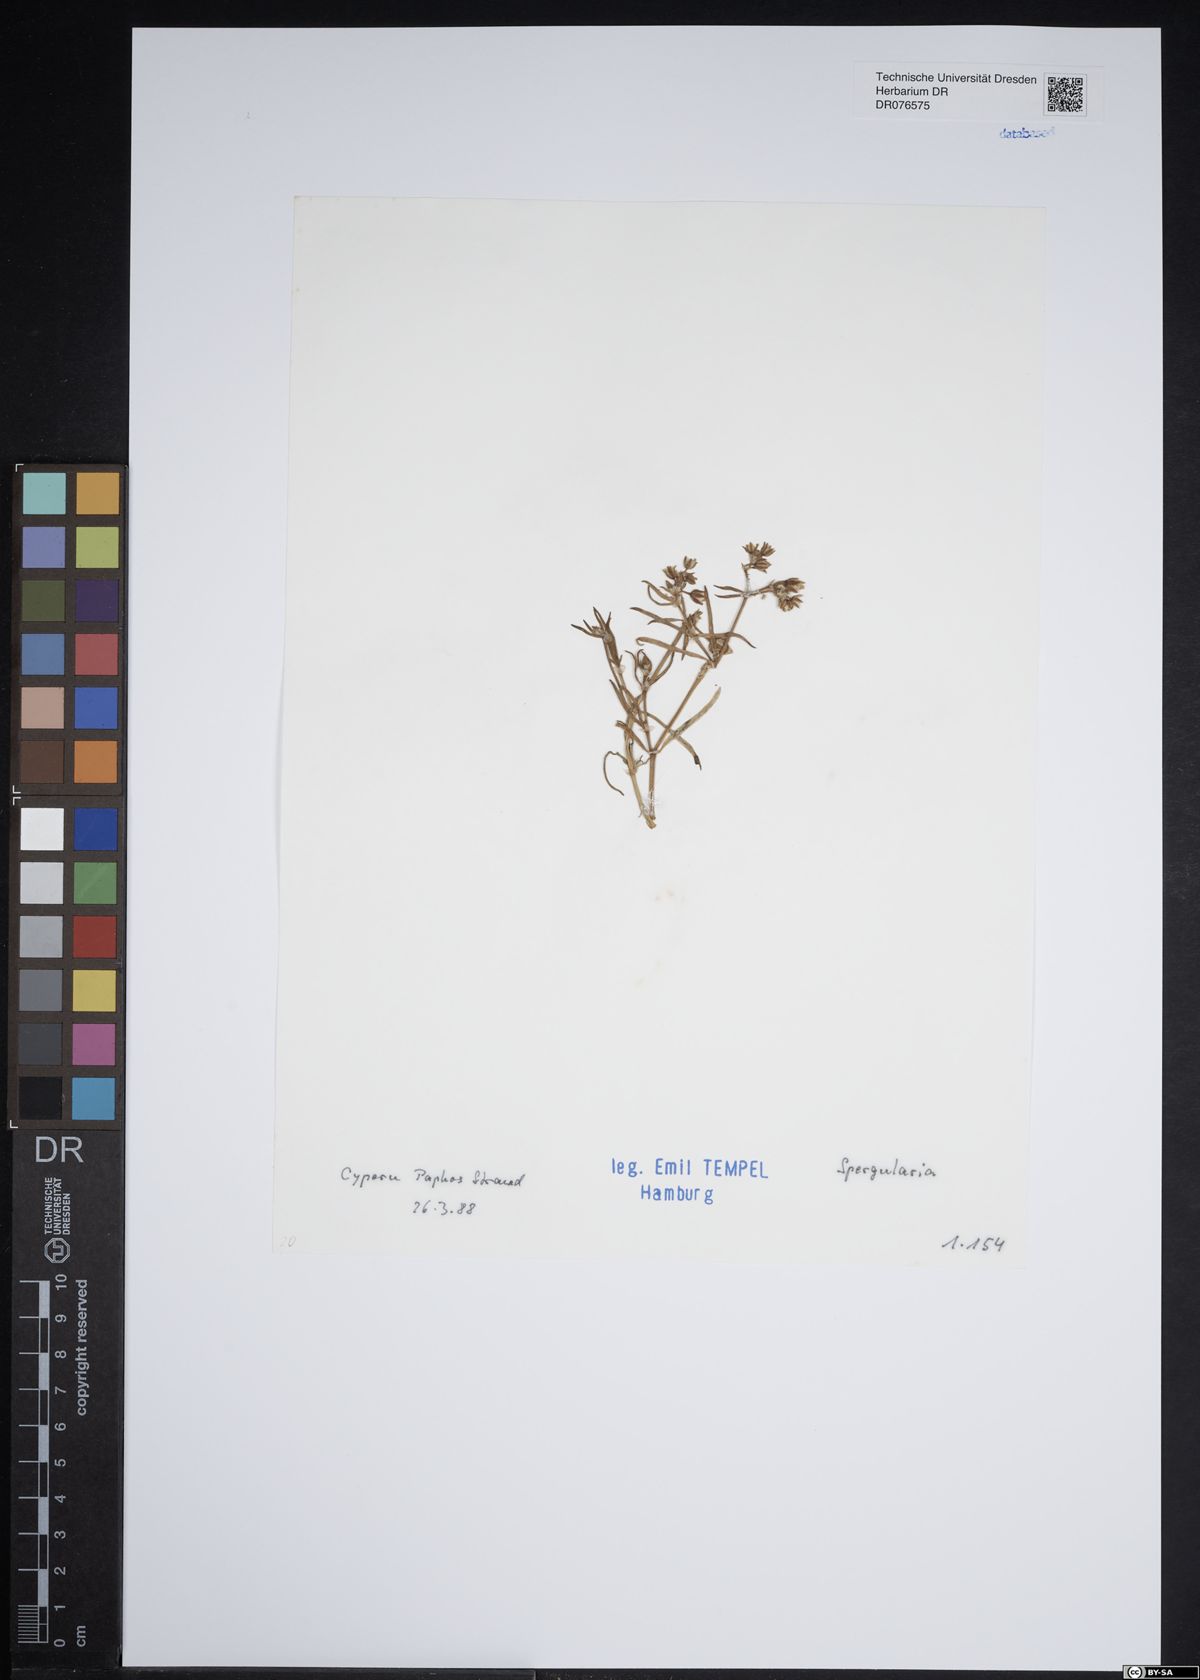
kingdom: Plantae
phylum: Tracheophyta
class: Magnoliopsida
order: Caryophyllales
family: Caryophyllaceae
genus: Spergularia
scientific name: Spergularia
